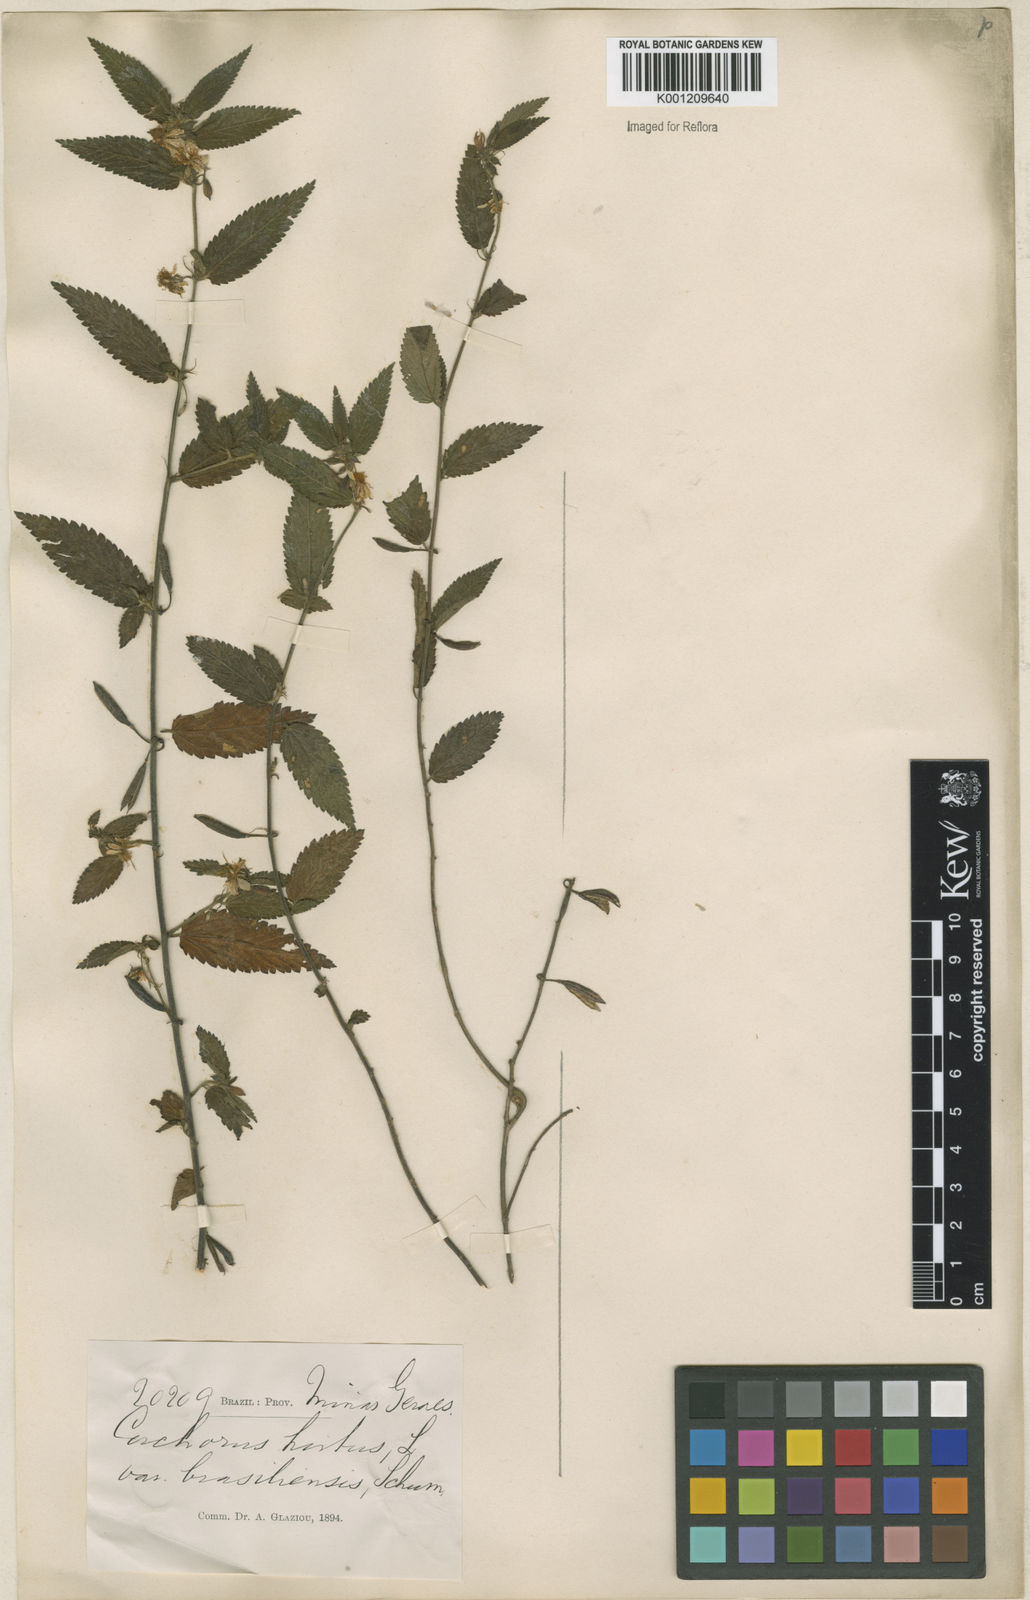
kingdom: Plantae
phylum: Tracheophyta
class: Magnoliopsida
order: Malvales
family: Malvaceae
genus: Corchorus
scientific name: Corchorus hirtus
